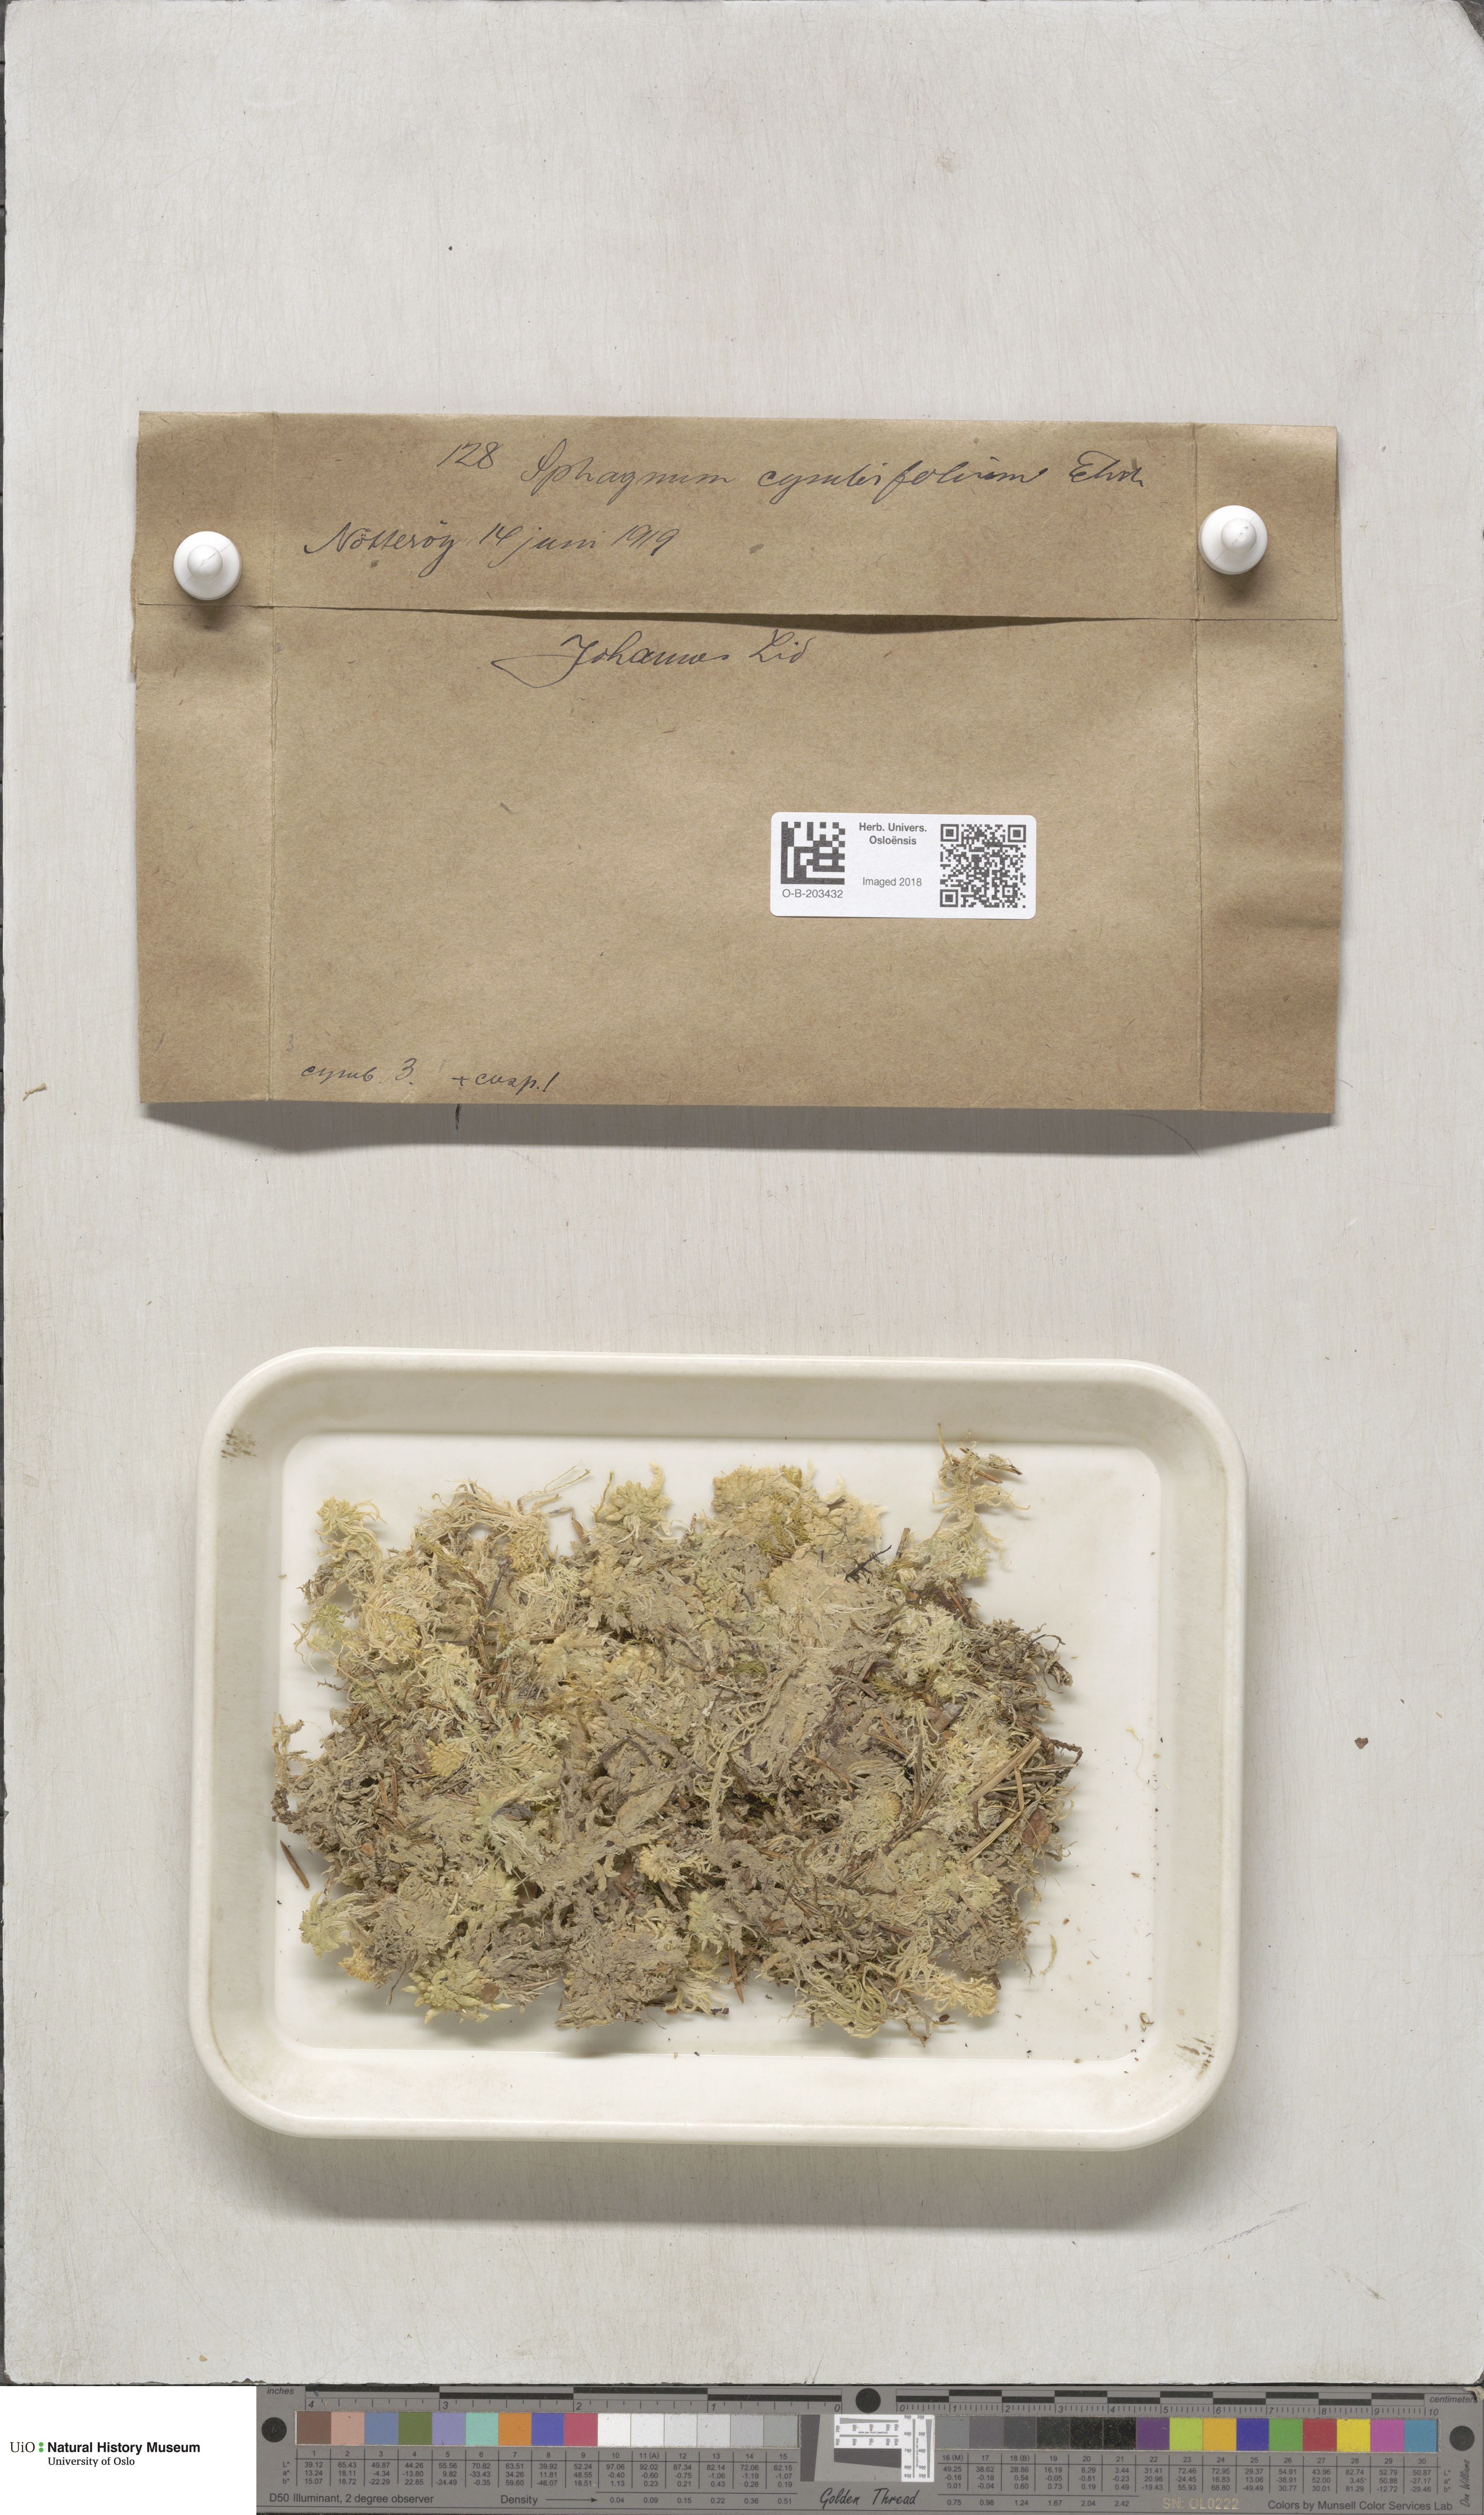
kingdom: Plantae
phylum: Bryophyta
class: Sphagnopsida
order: Sphagnales
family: Sphagnaceae
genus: Sphagnum
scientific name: Sphagnum palustre
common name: Blunt-leaved bog-moss
